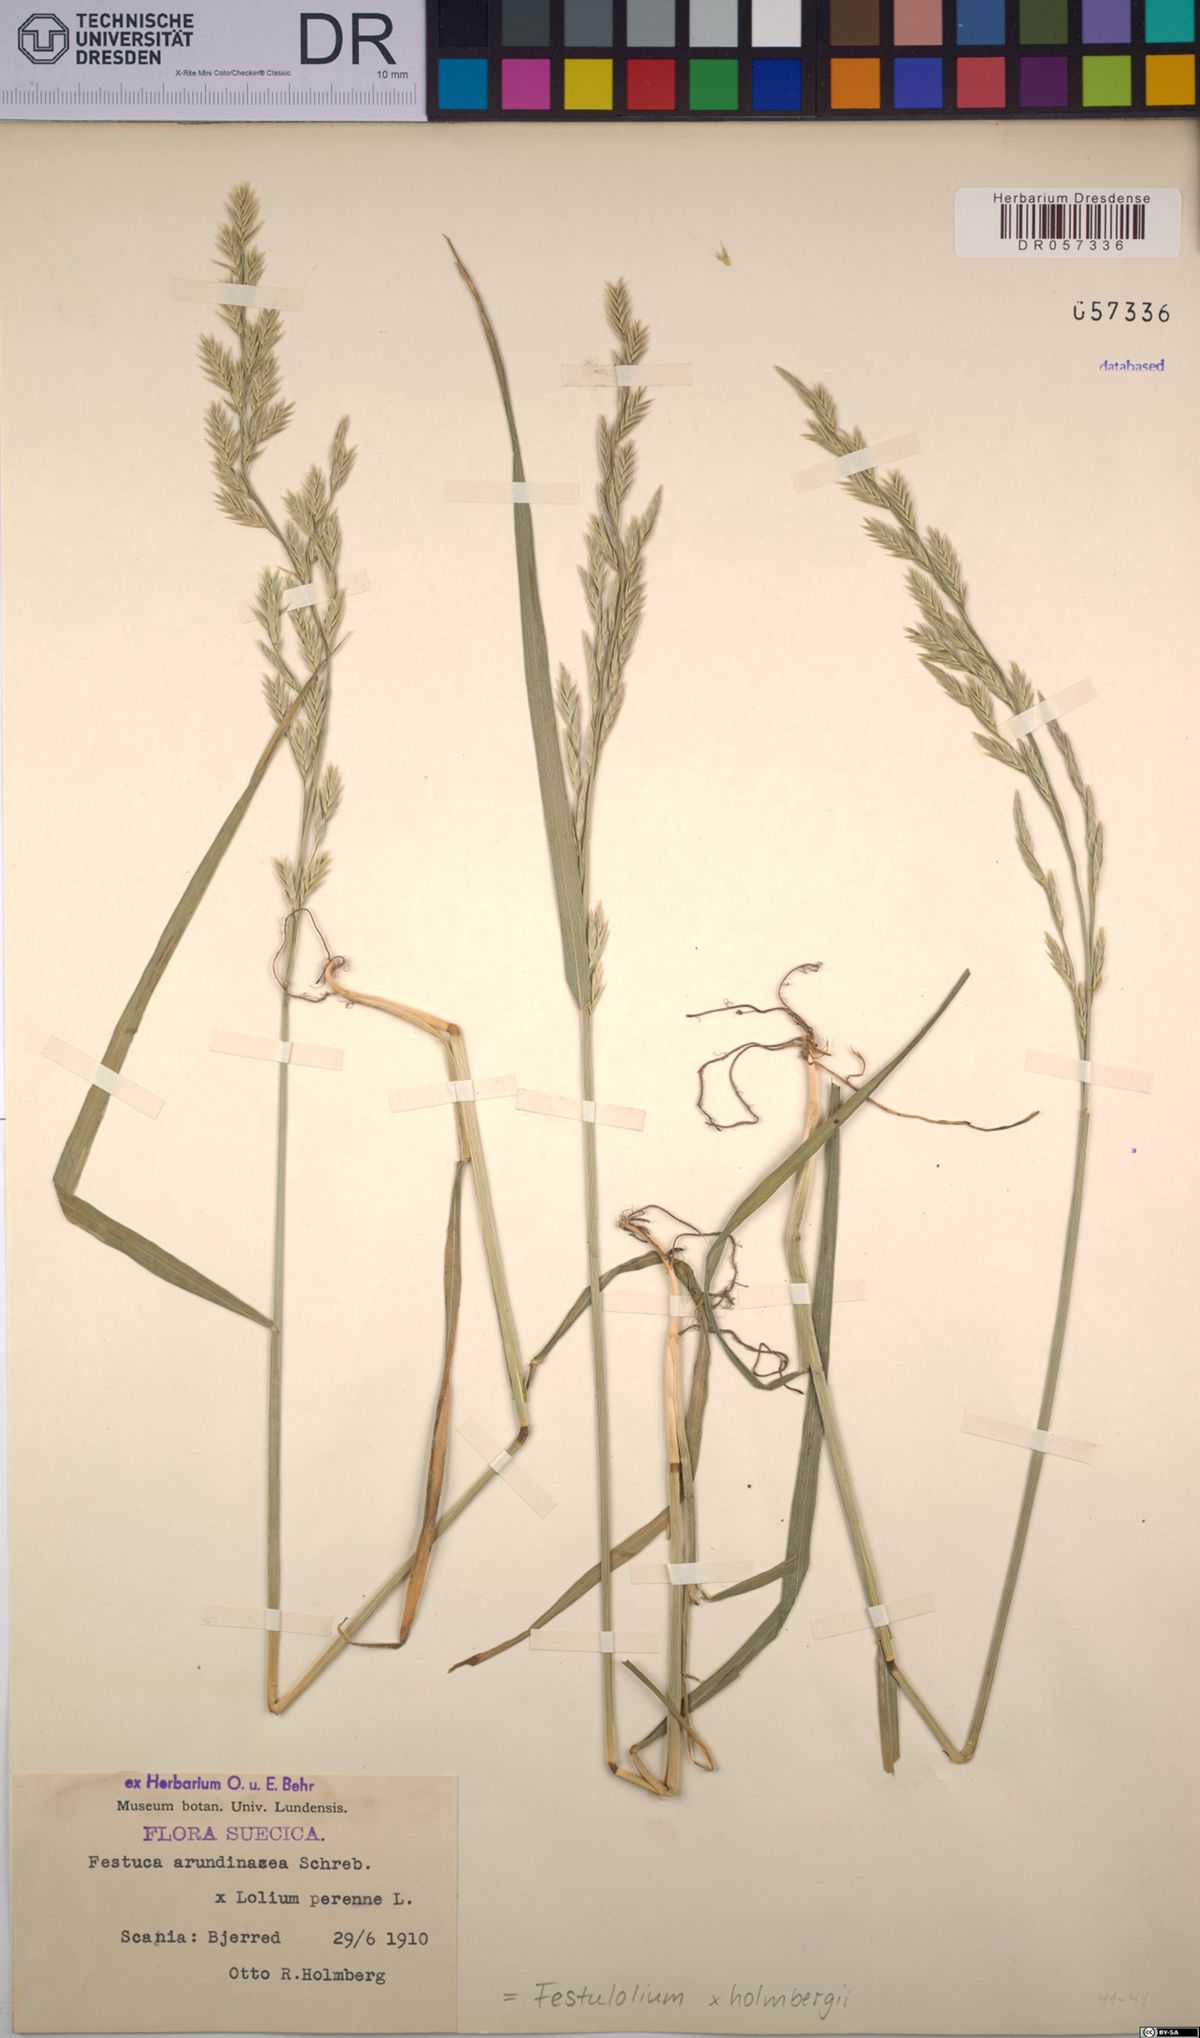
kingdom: Plantae
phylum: Tracheophyta
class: Liliopsida
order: Poales
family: Poaceae
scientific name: Poaceae
